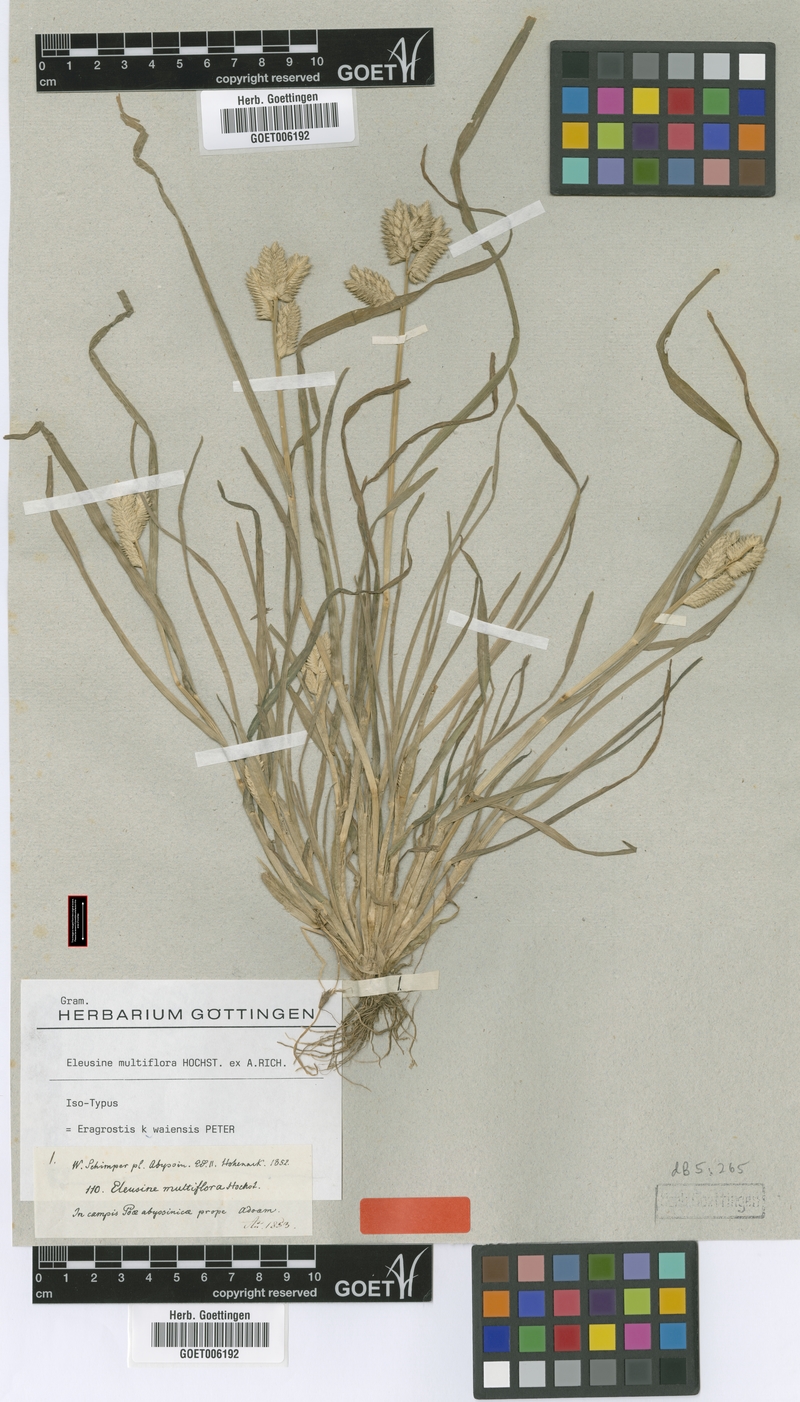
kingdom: Plantae
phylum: Tracheophyta
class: Liliopsida
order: Poales
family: Poaceae
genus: Eleusine
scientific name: Eleusine multiflora
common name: Fat-spiked yard-grass
